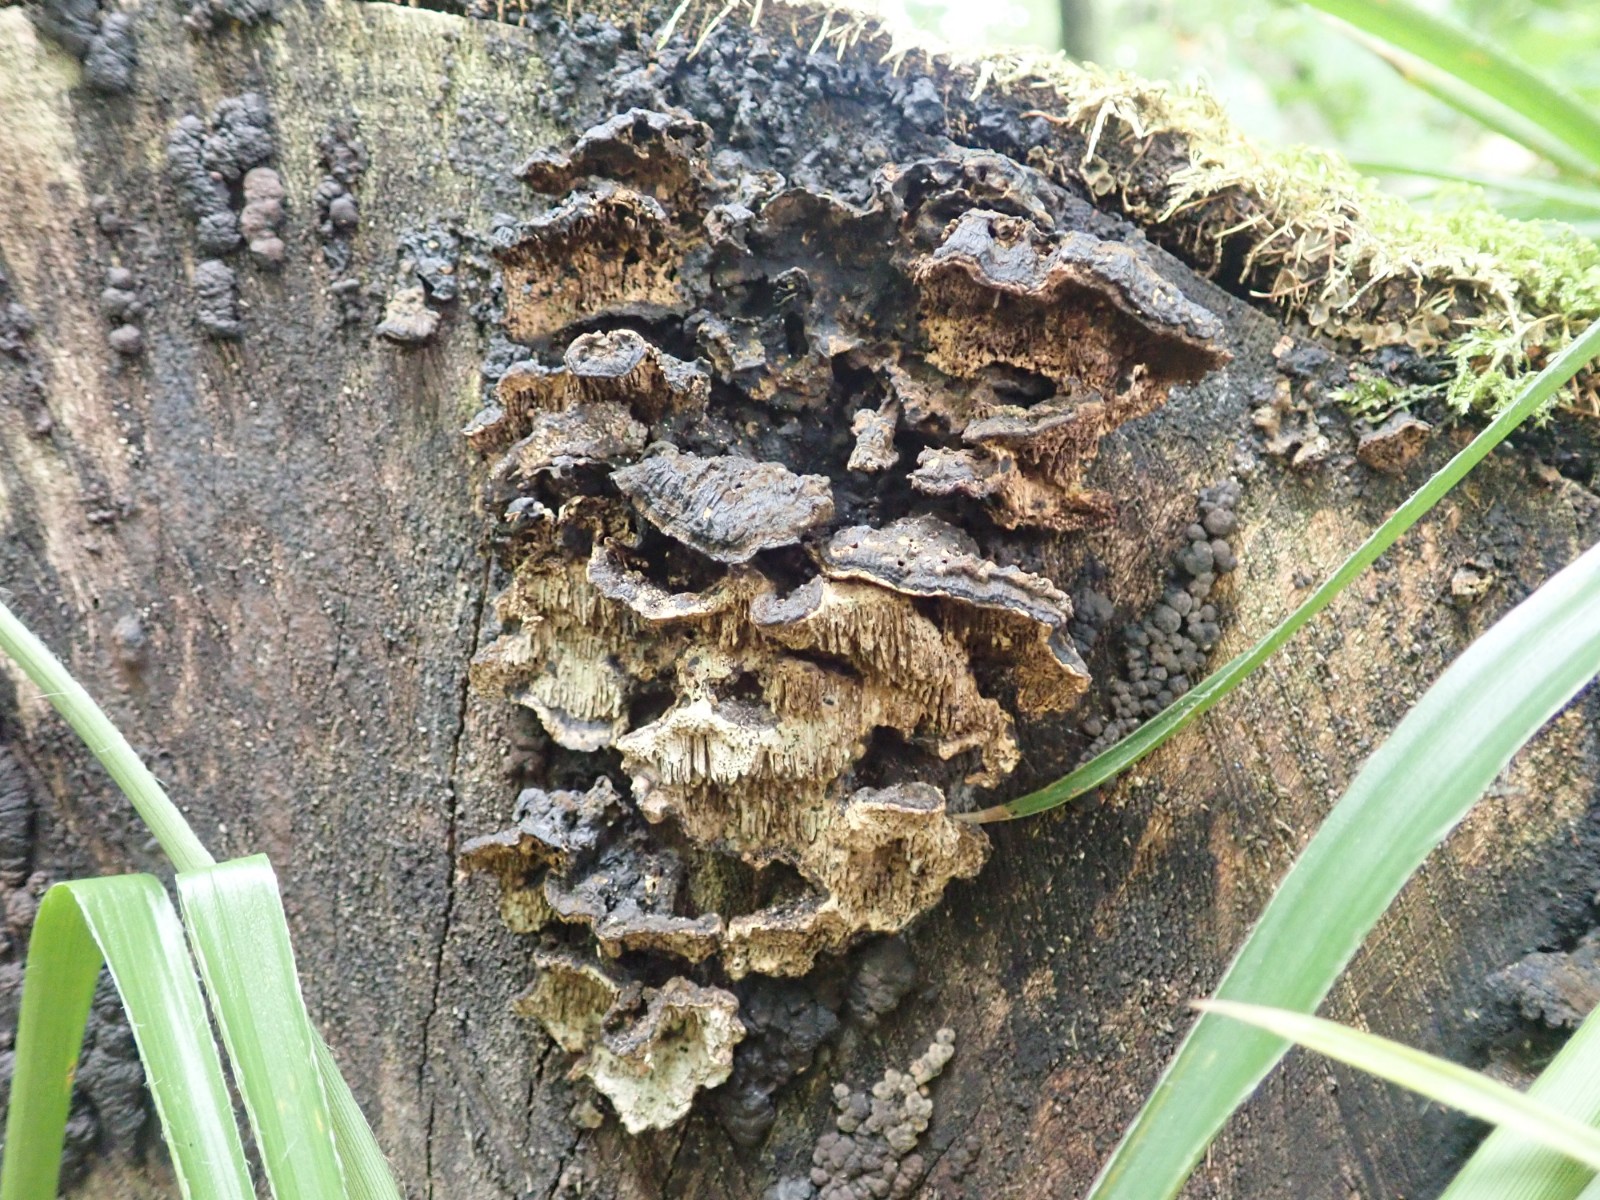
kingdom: Fungi
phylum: Basidiomycota
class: Agaricomycetes
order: Polyporales
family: Polyporaceae
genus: Podofomes
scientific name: Podofomes mollis
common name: blød begporesvamp
